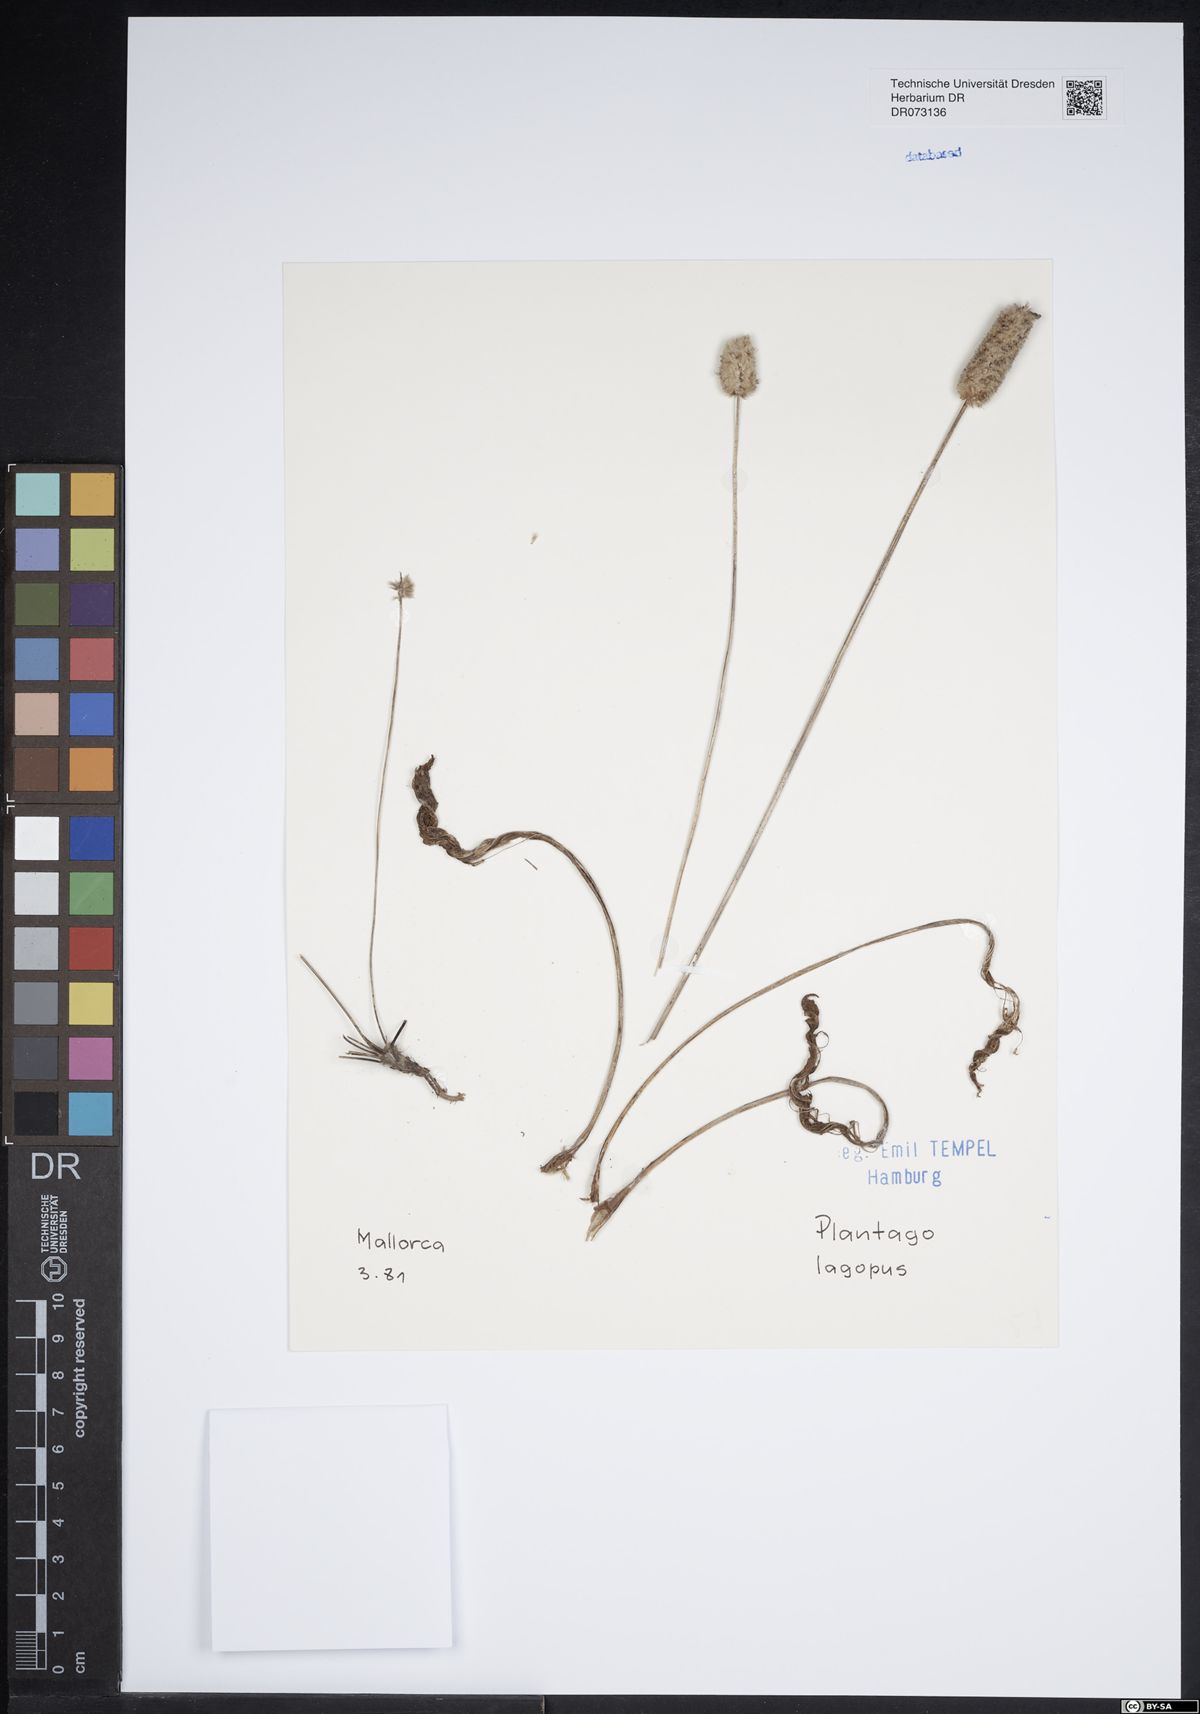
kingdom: Plantae
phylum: Tracheophyta
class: Magnoliopsida
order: Lamiales
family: Plantaginaceae
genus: Plantago
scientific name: Plantago lagopus
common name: Hare-foot plantain
